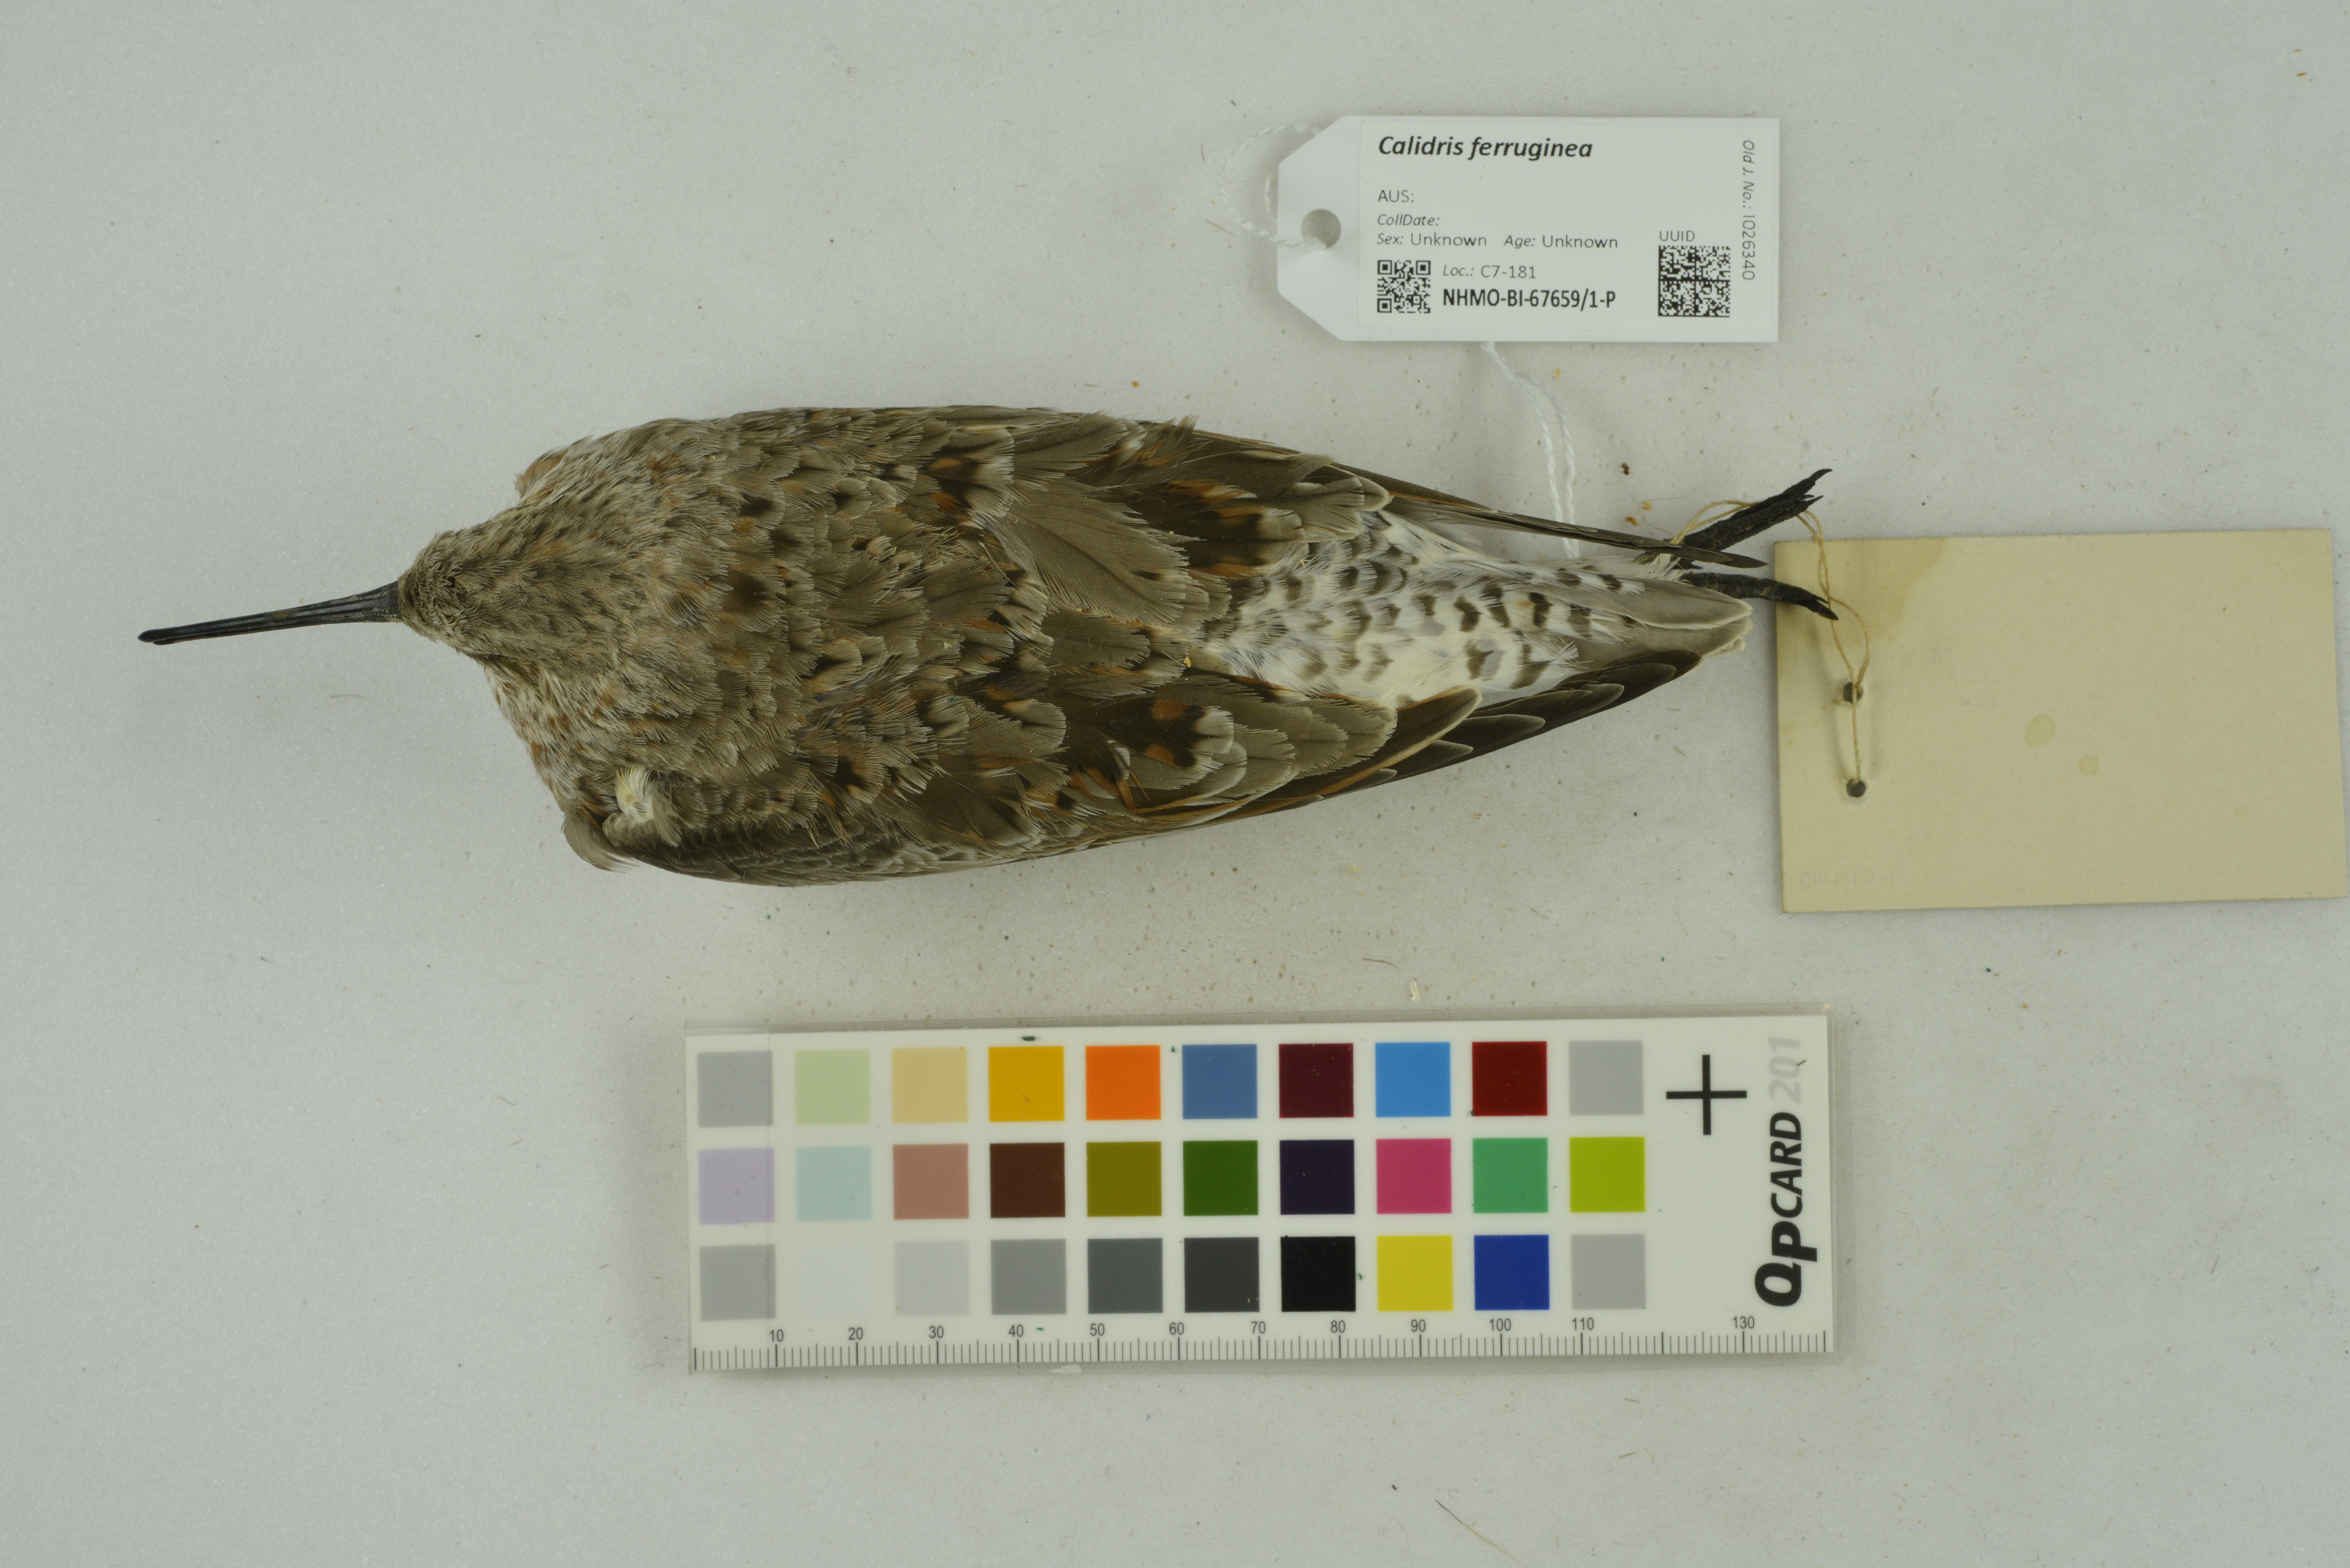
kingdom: Animalia
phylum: Chordata
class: Aves
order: Charadriiformes
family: Scolopacidae
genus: Calidris
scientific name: Calidris ferruginea
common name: Curlew sandpiper
